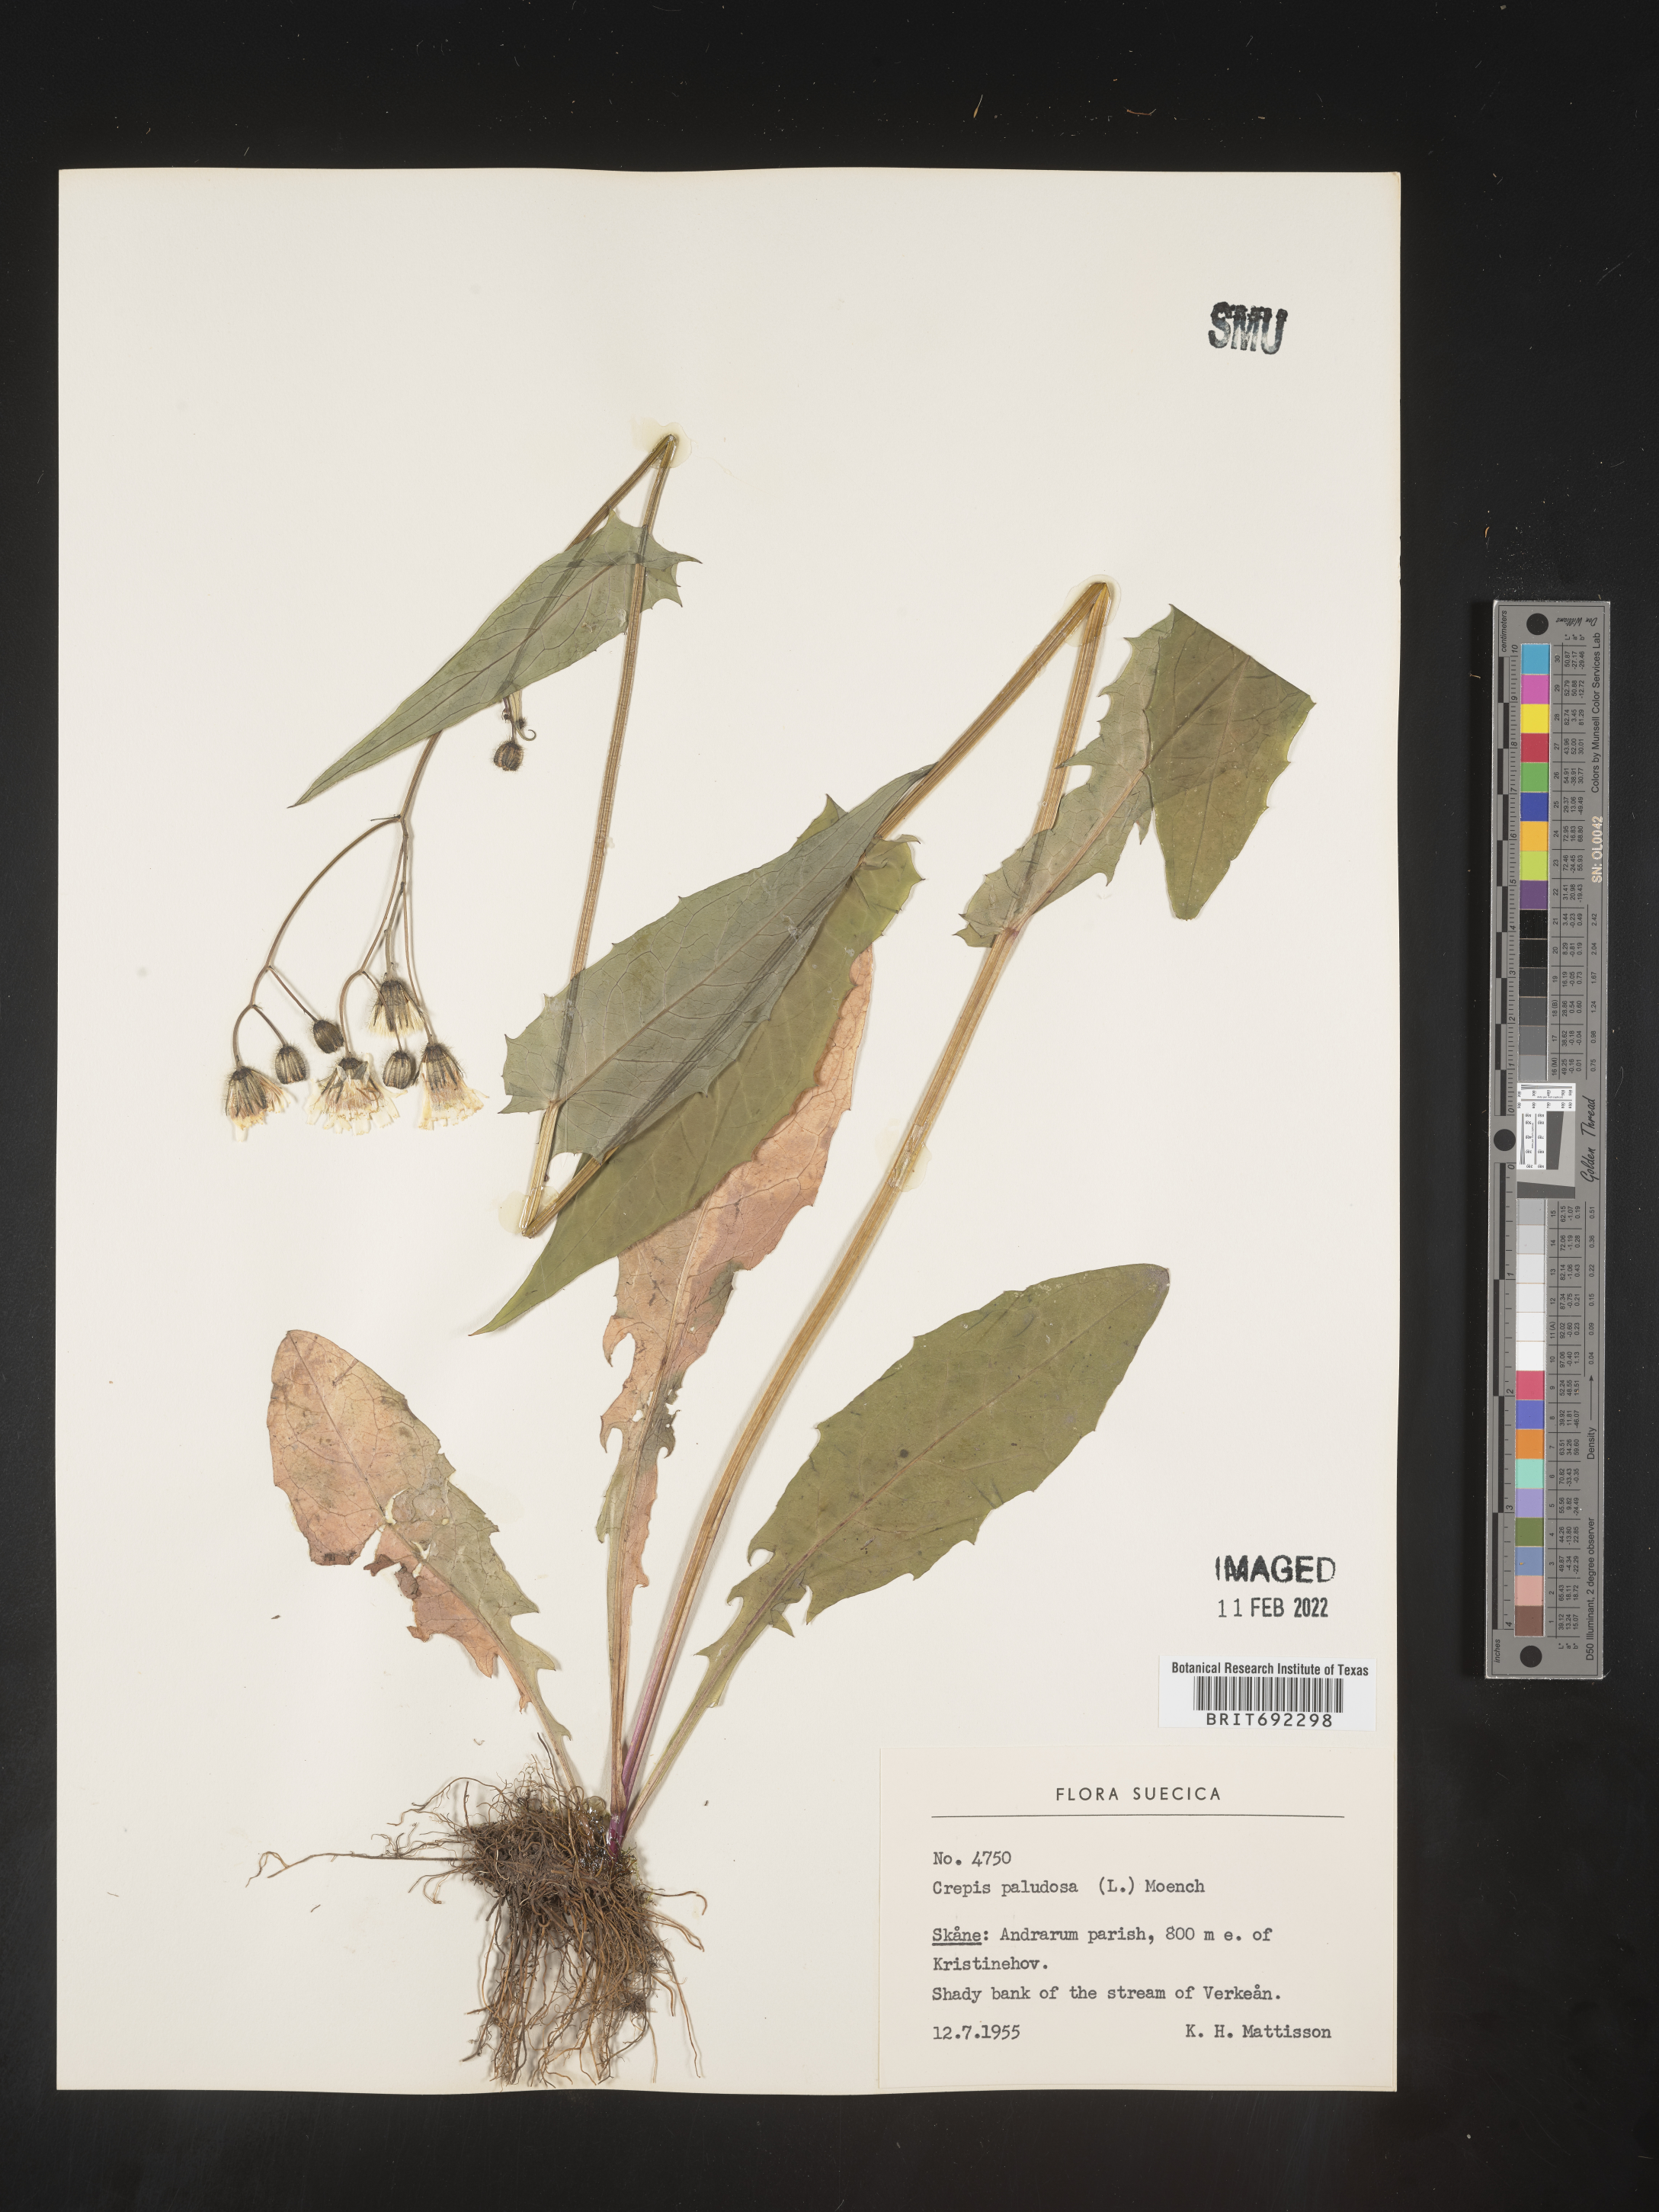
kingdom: Plantae
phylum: Tracheophyta
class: Magnoliopsida
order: Asterales
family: Asteraceae
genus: Crepis
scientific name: Crepis
